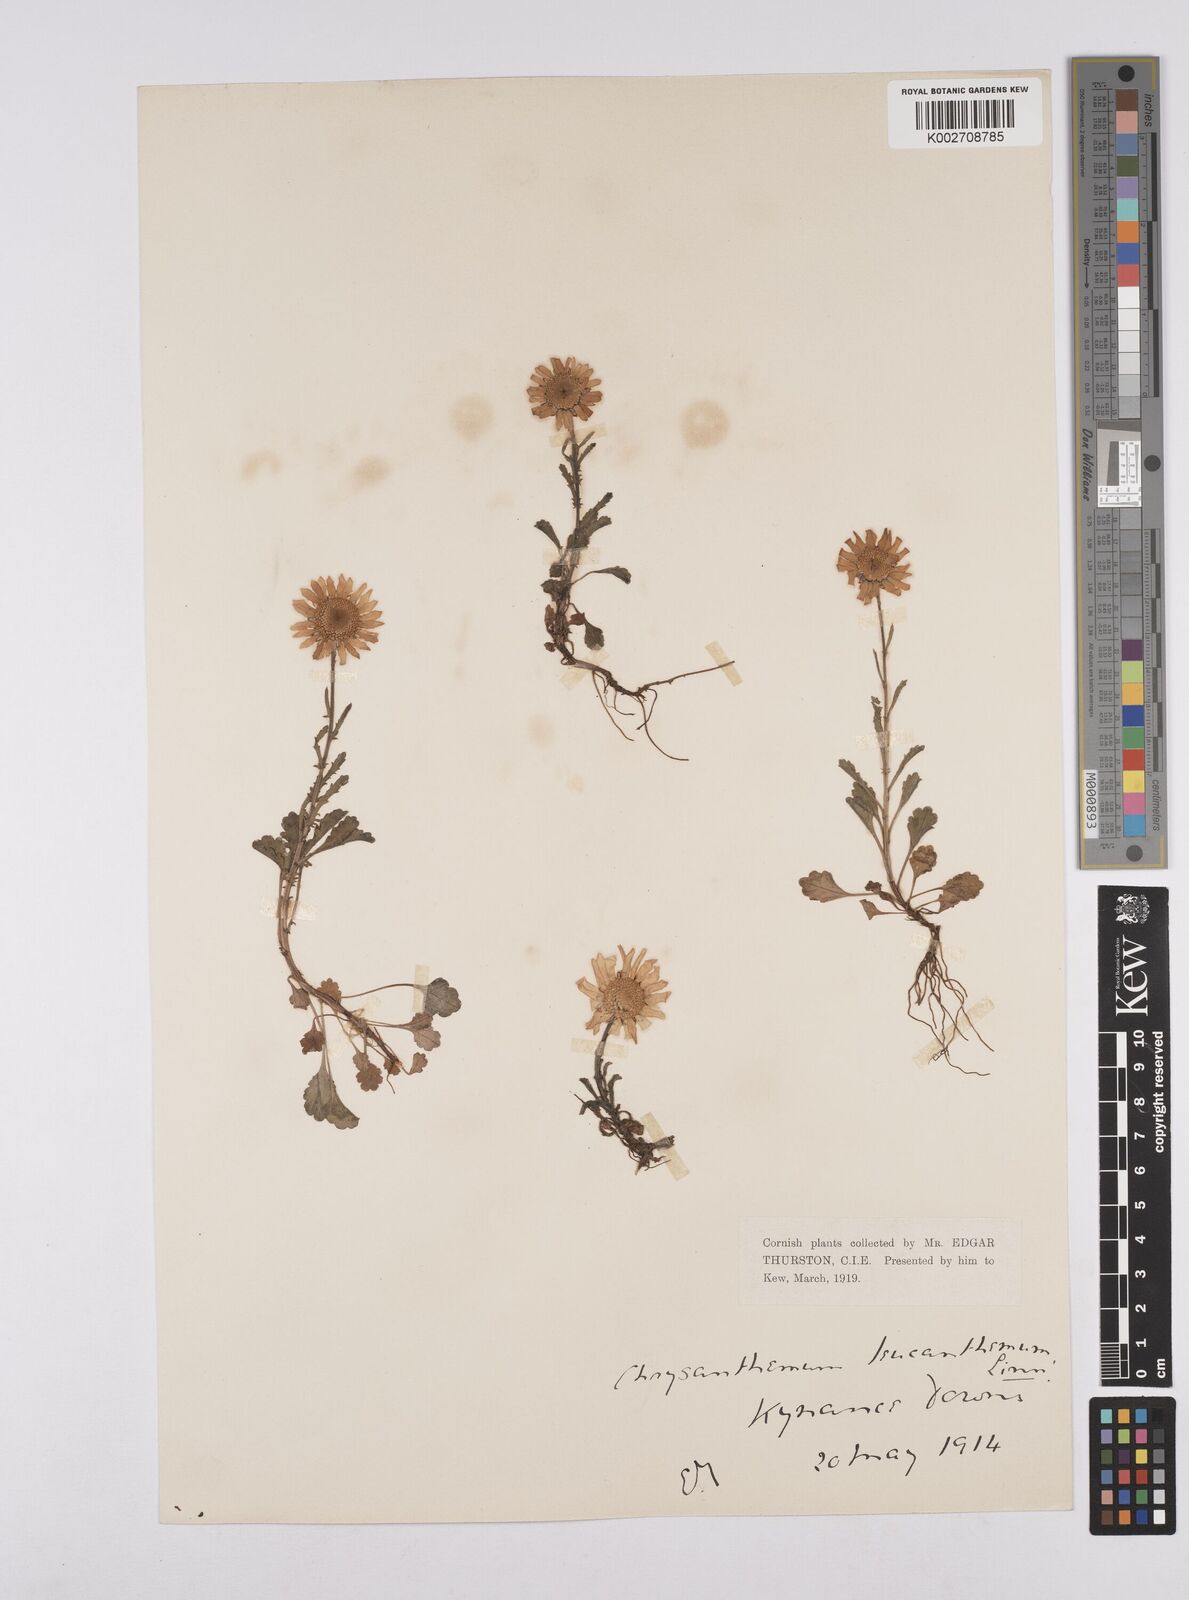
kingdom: Plantae
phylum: Tracheophyta
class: Magnoliopsida
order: Asterales
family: Asteraceae
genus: Leucanthemum
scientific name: Leucanthemum vulgare
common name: Oxeye daisy
